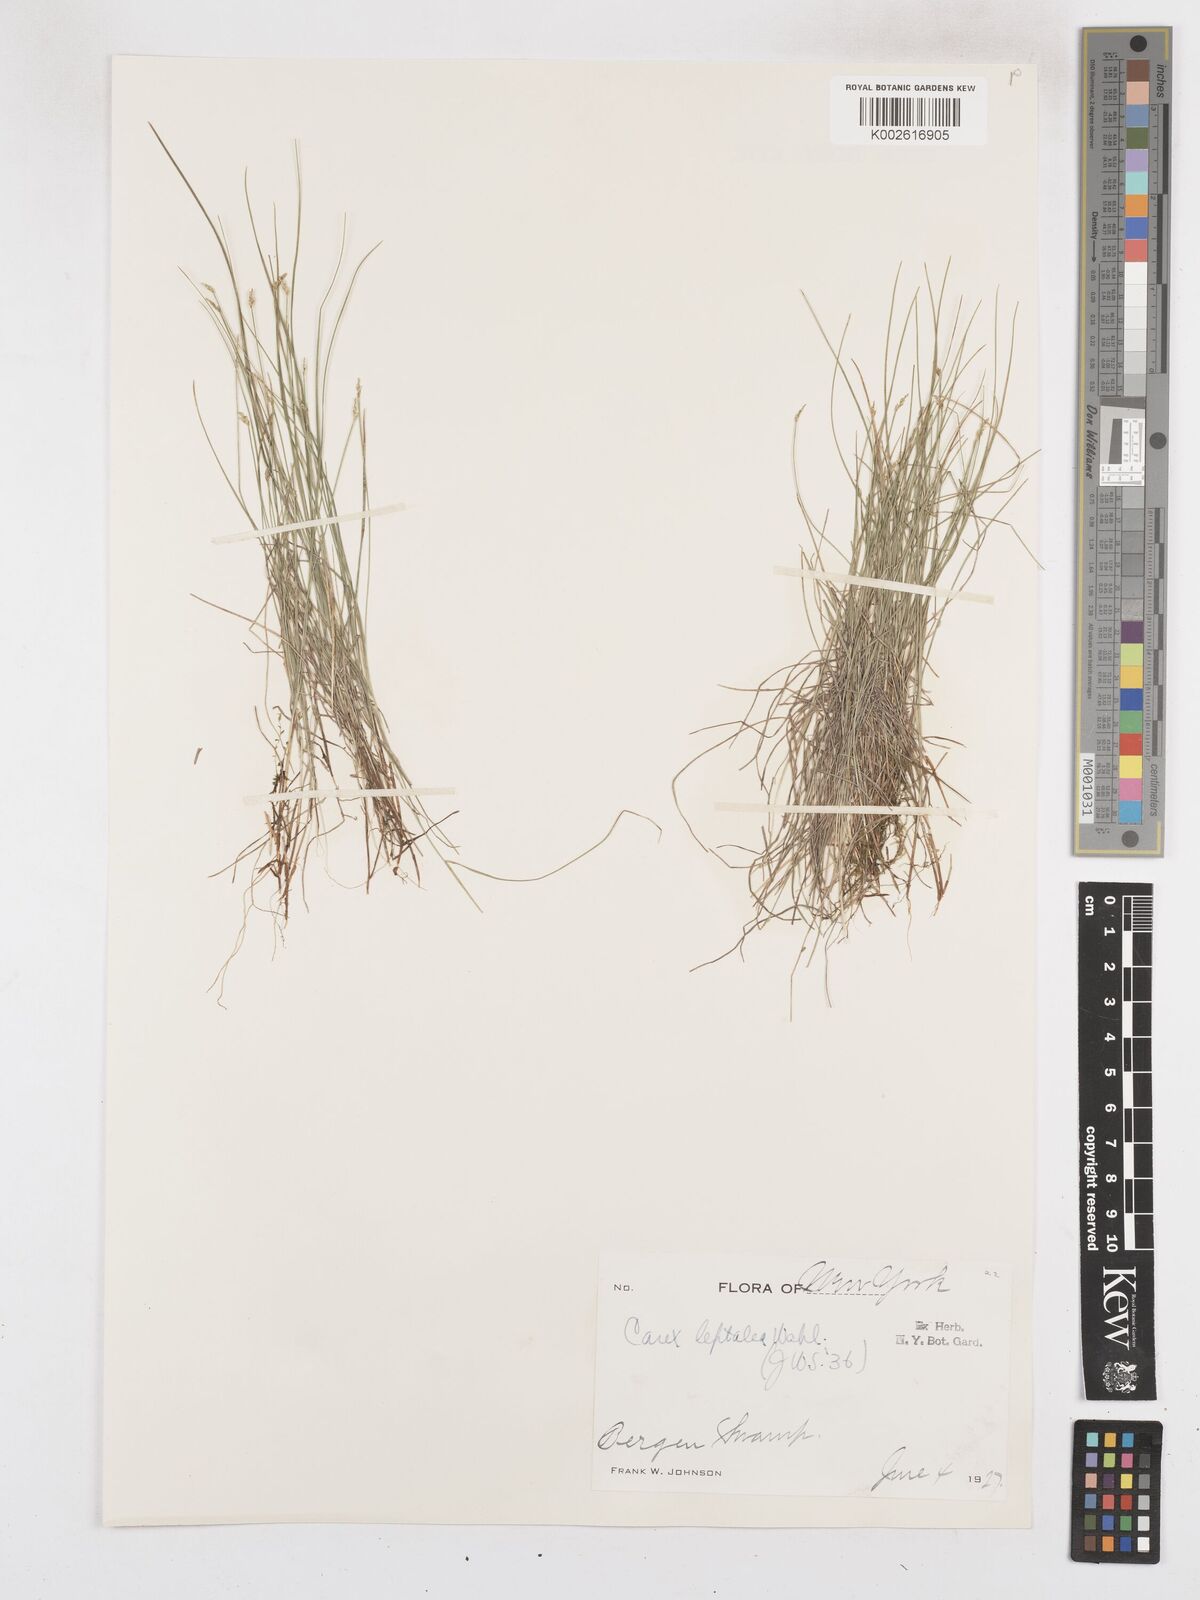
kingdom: Plantae
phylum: Tracheophyta
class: Liliopsida
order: Poales
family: Cyperaceae
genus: Carex
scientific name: Carex leptalea
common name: Bristly-stalked sedge
